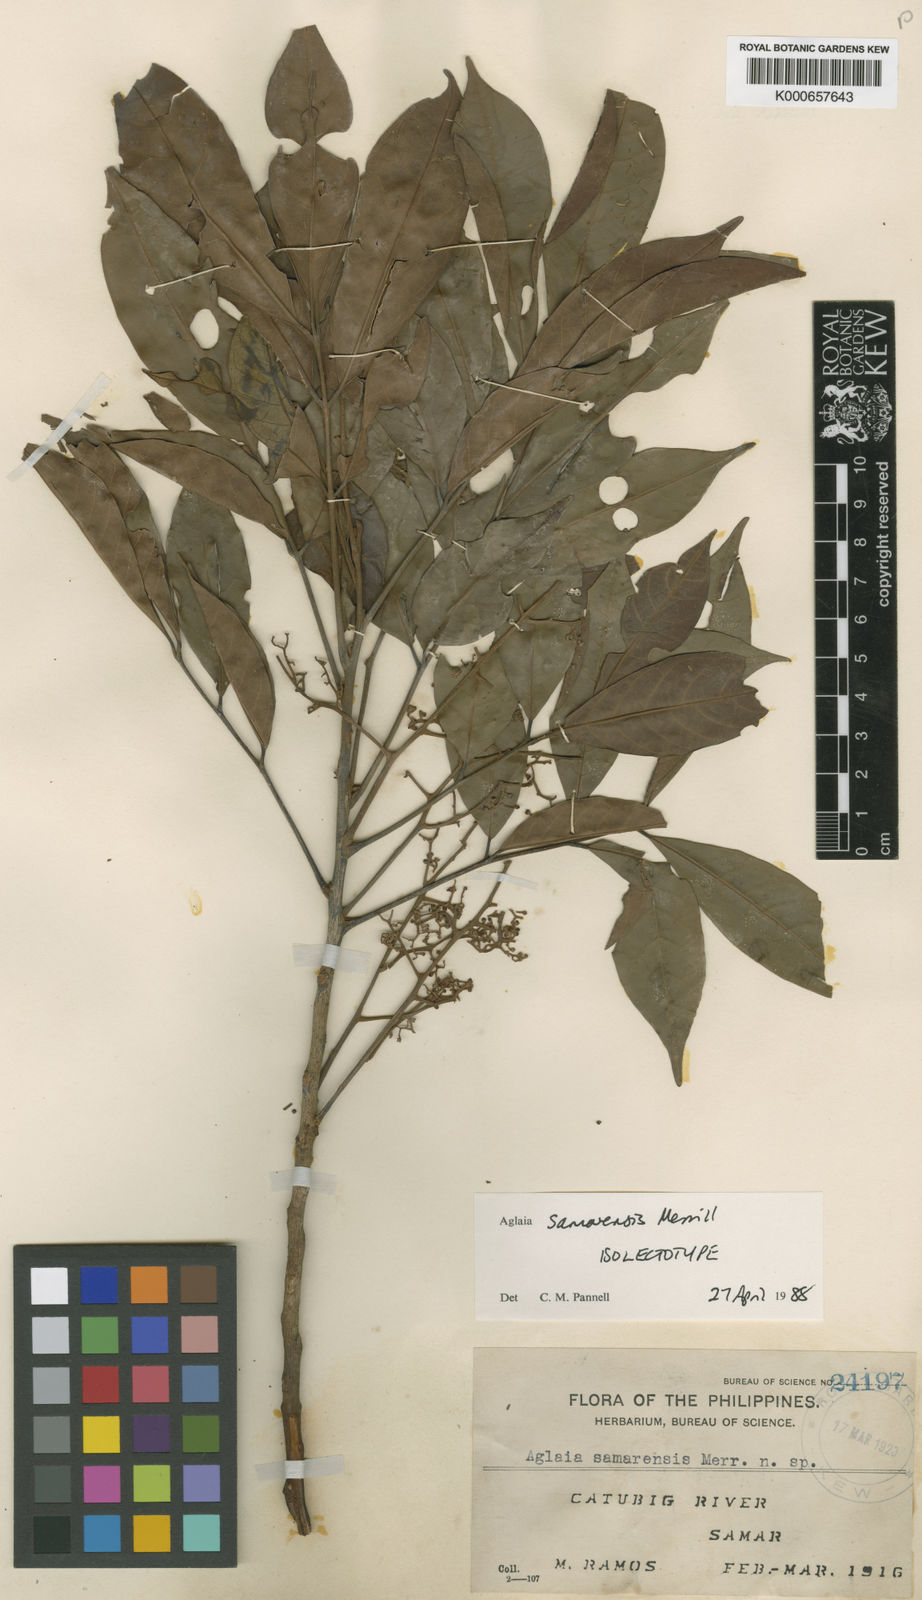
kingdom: Plantae
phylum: Tracheophyta
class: Magnoliopsida
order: Sapindales
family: Meliaceae
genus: Aglaia
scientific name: Aglaia edulis
